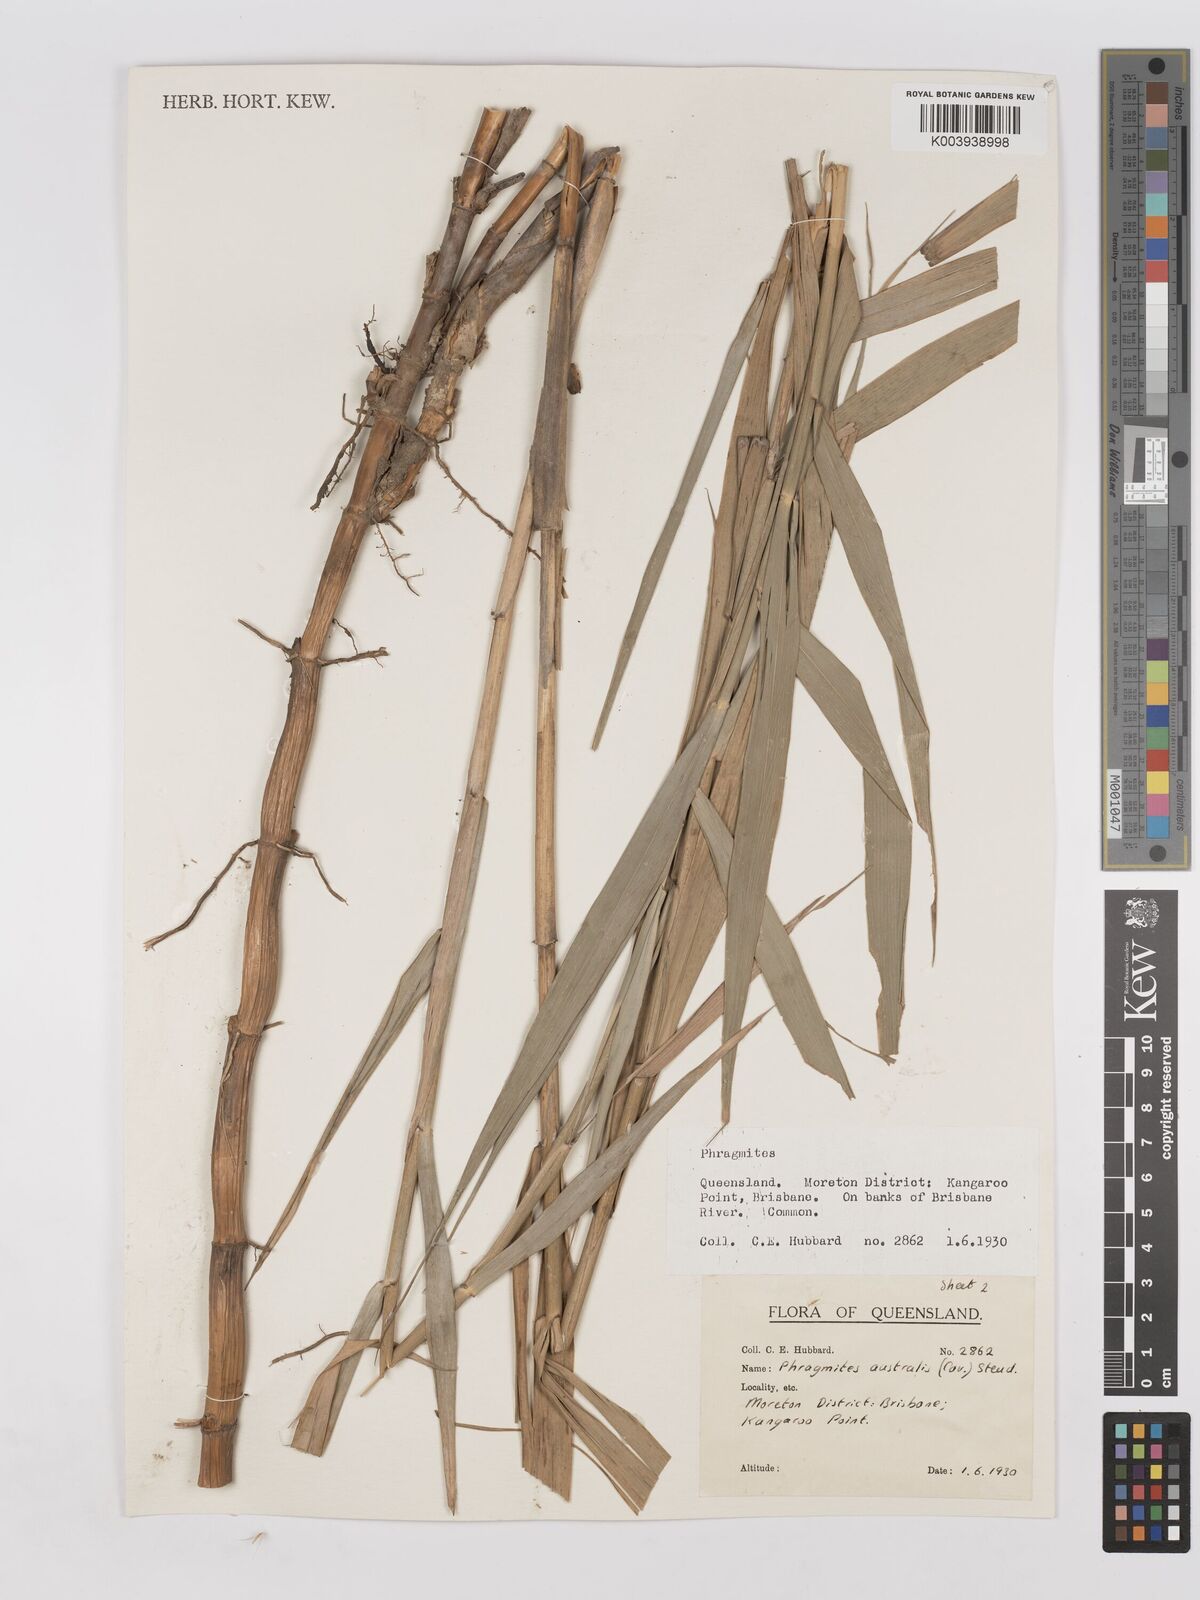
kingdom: Plantae
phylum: Tracheophyta
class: Liliopsida
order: Poales
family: Poaceae
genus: Phragmites
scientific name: Phragmites australis
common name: Common reed
